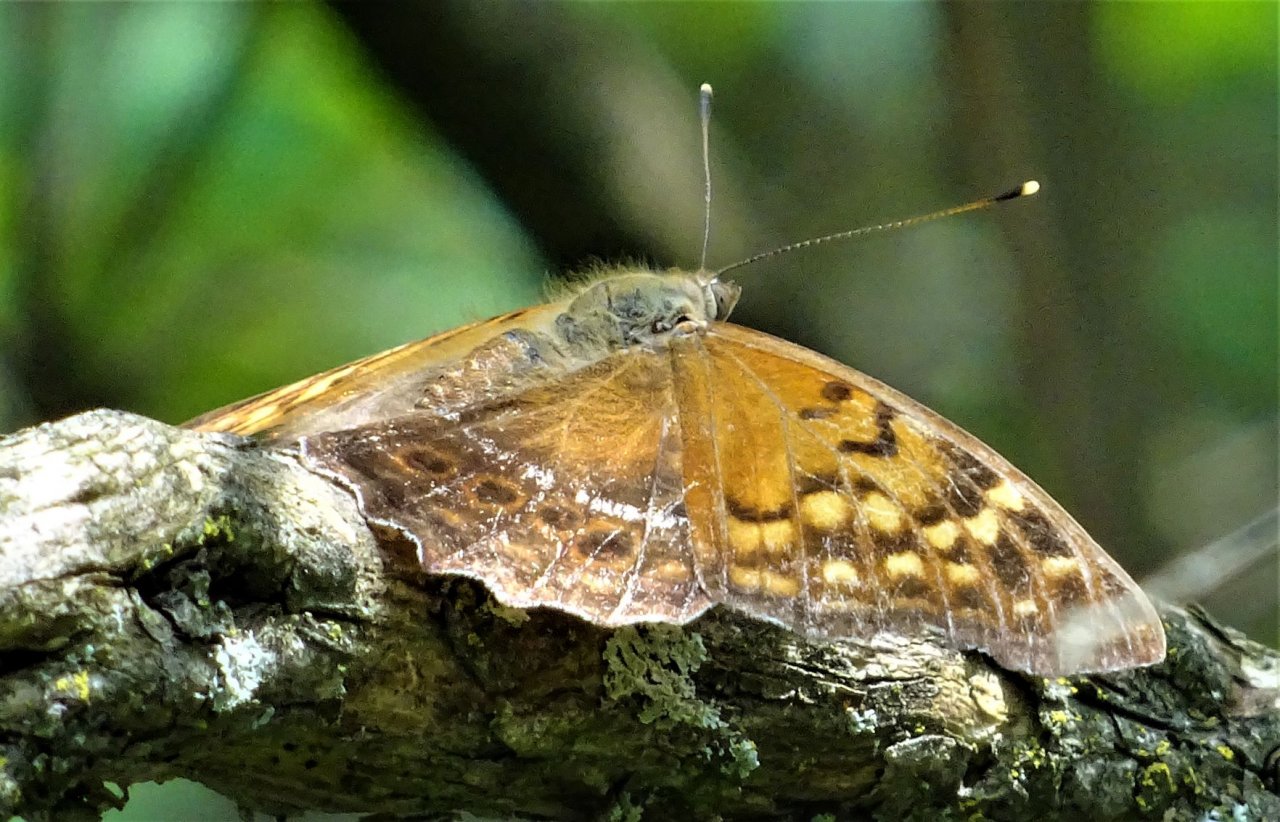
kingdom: Animalia
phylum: Arthropoda
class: Insecta
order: Lepidoptera
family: Nymphalidae
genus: Asterocampa
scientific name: Asterocampa clyton
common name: Tawny Emperor
